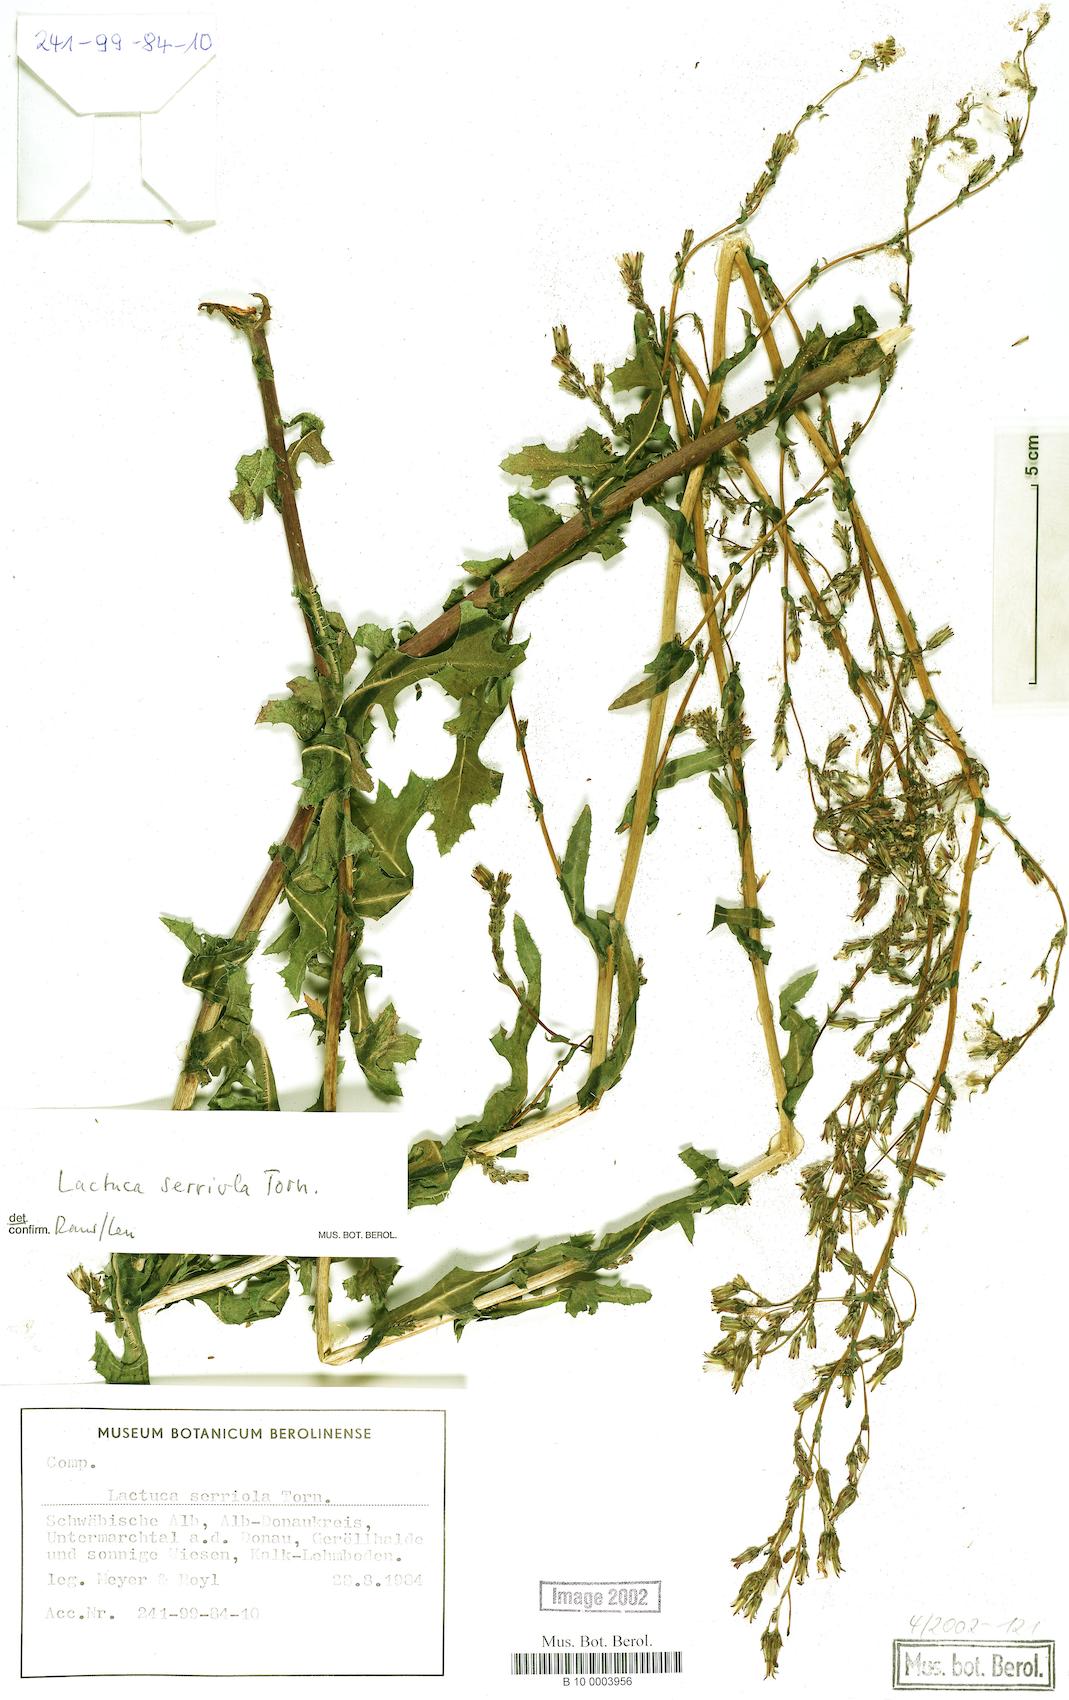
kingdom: Plantae
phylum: Tracheophyta
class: Magnoliopsida
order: Asterales
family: Asteraceae
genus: Lactuca
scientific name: Lactuca serriola
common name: Prickly lettuce
